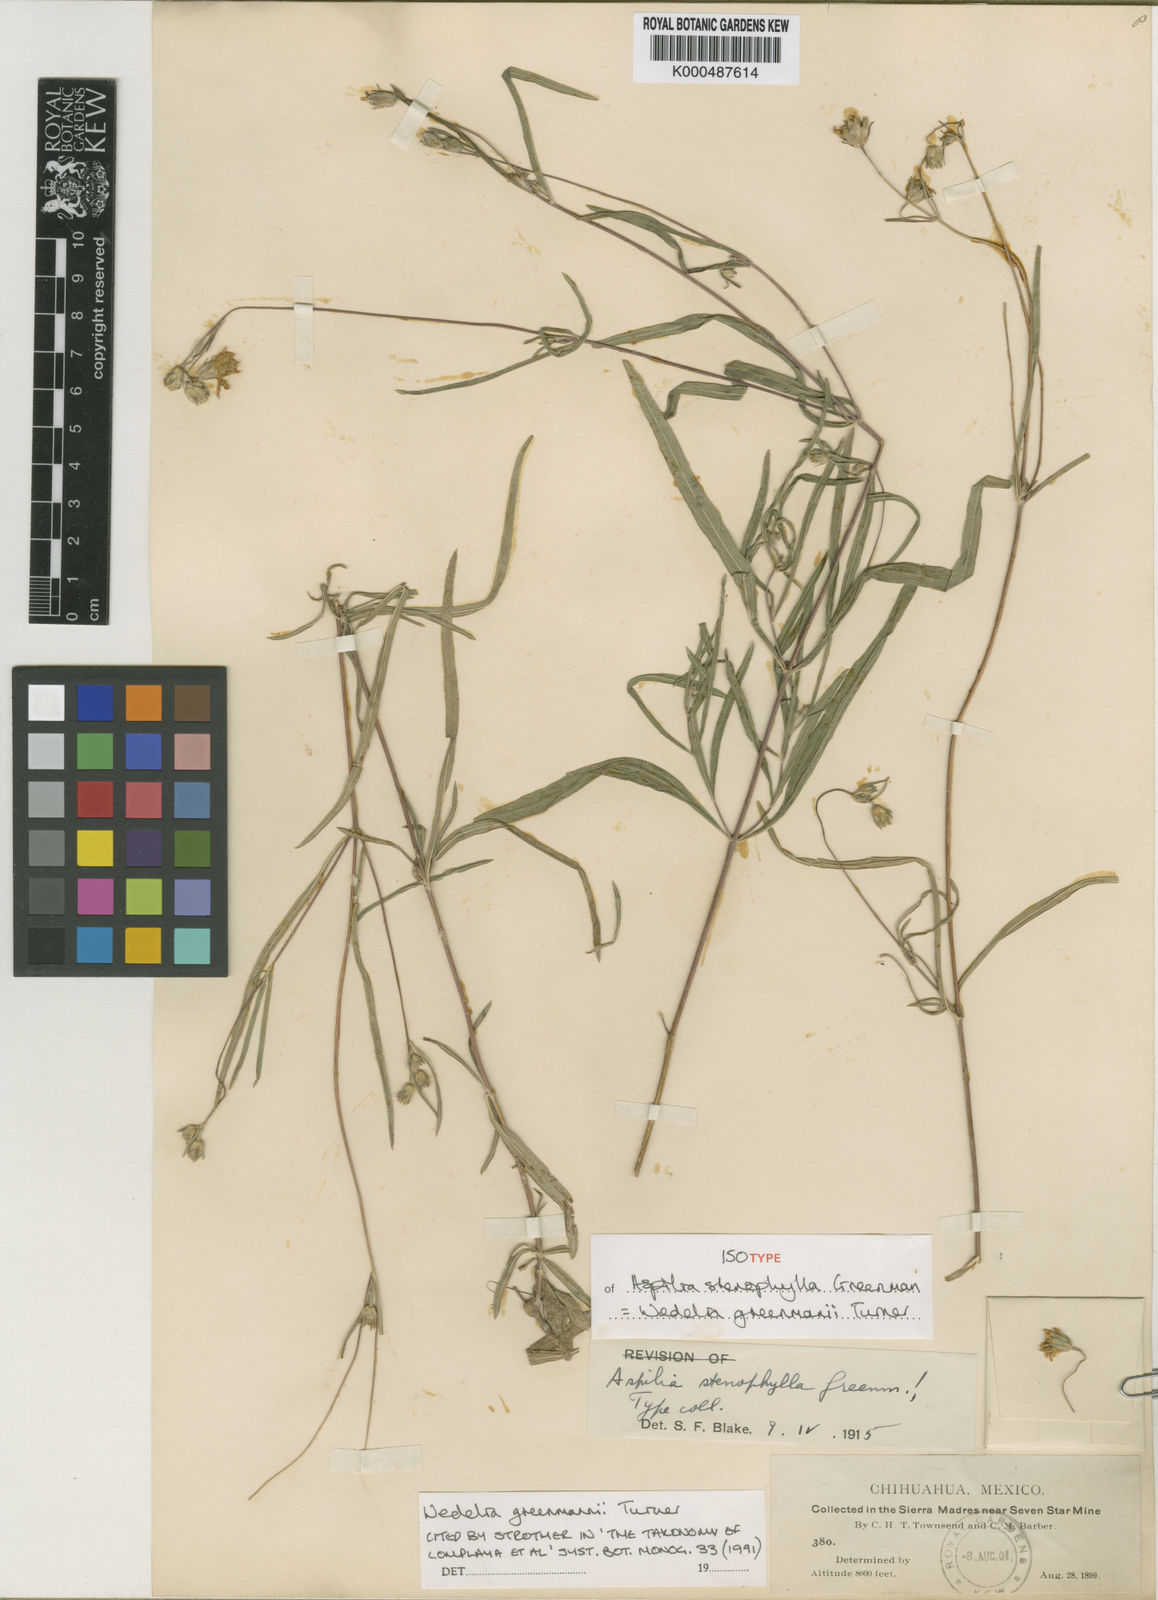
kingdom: Plantae
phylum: Tracheophyta
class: Magnoliopsida
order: Asterales
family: Asteraceae
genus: Wedelia
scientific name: Wedelia greenmanii
